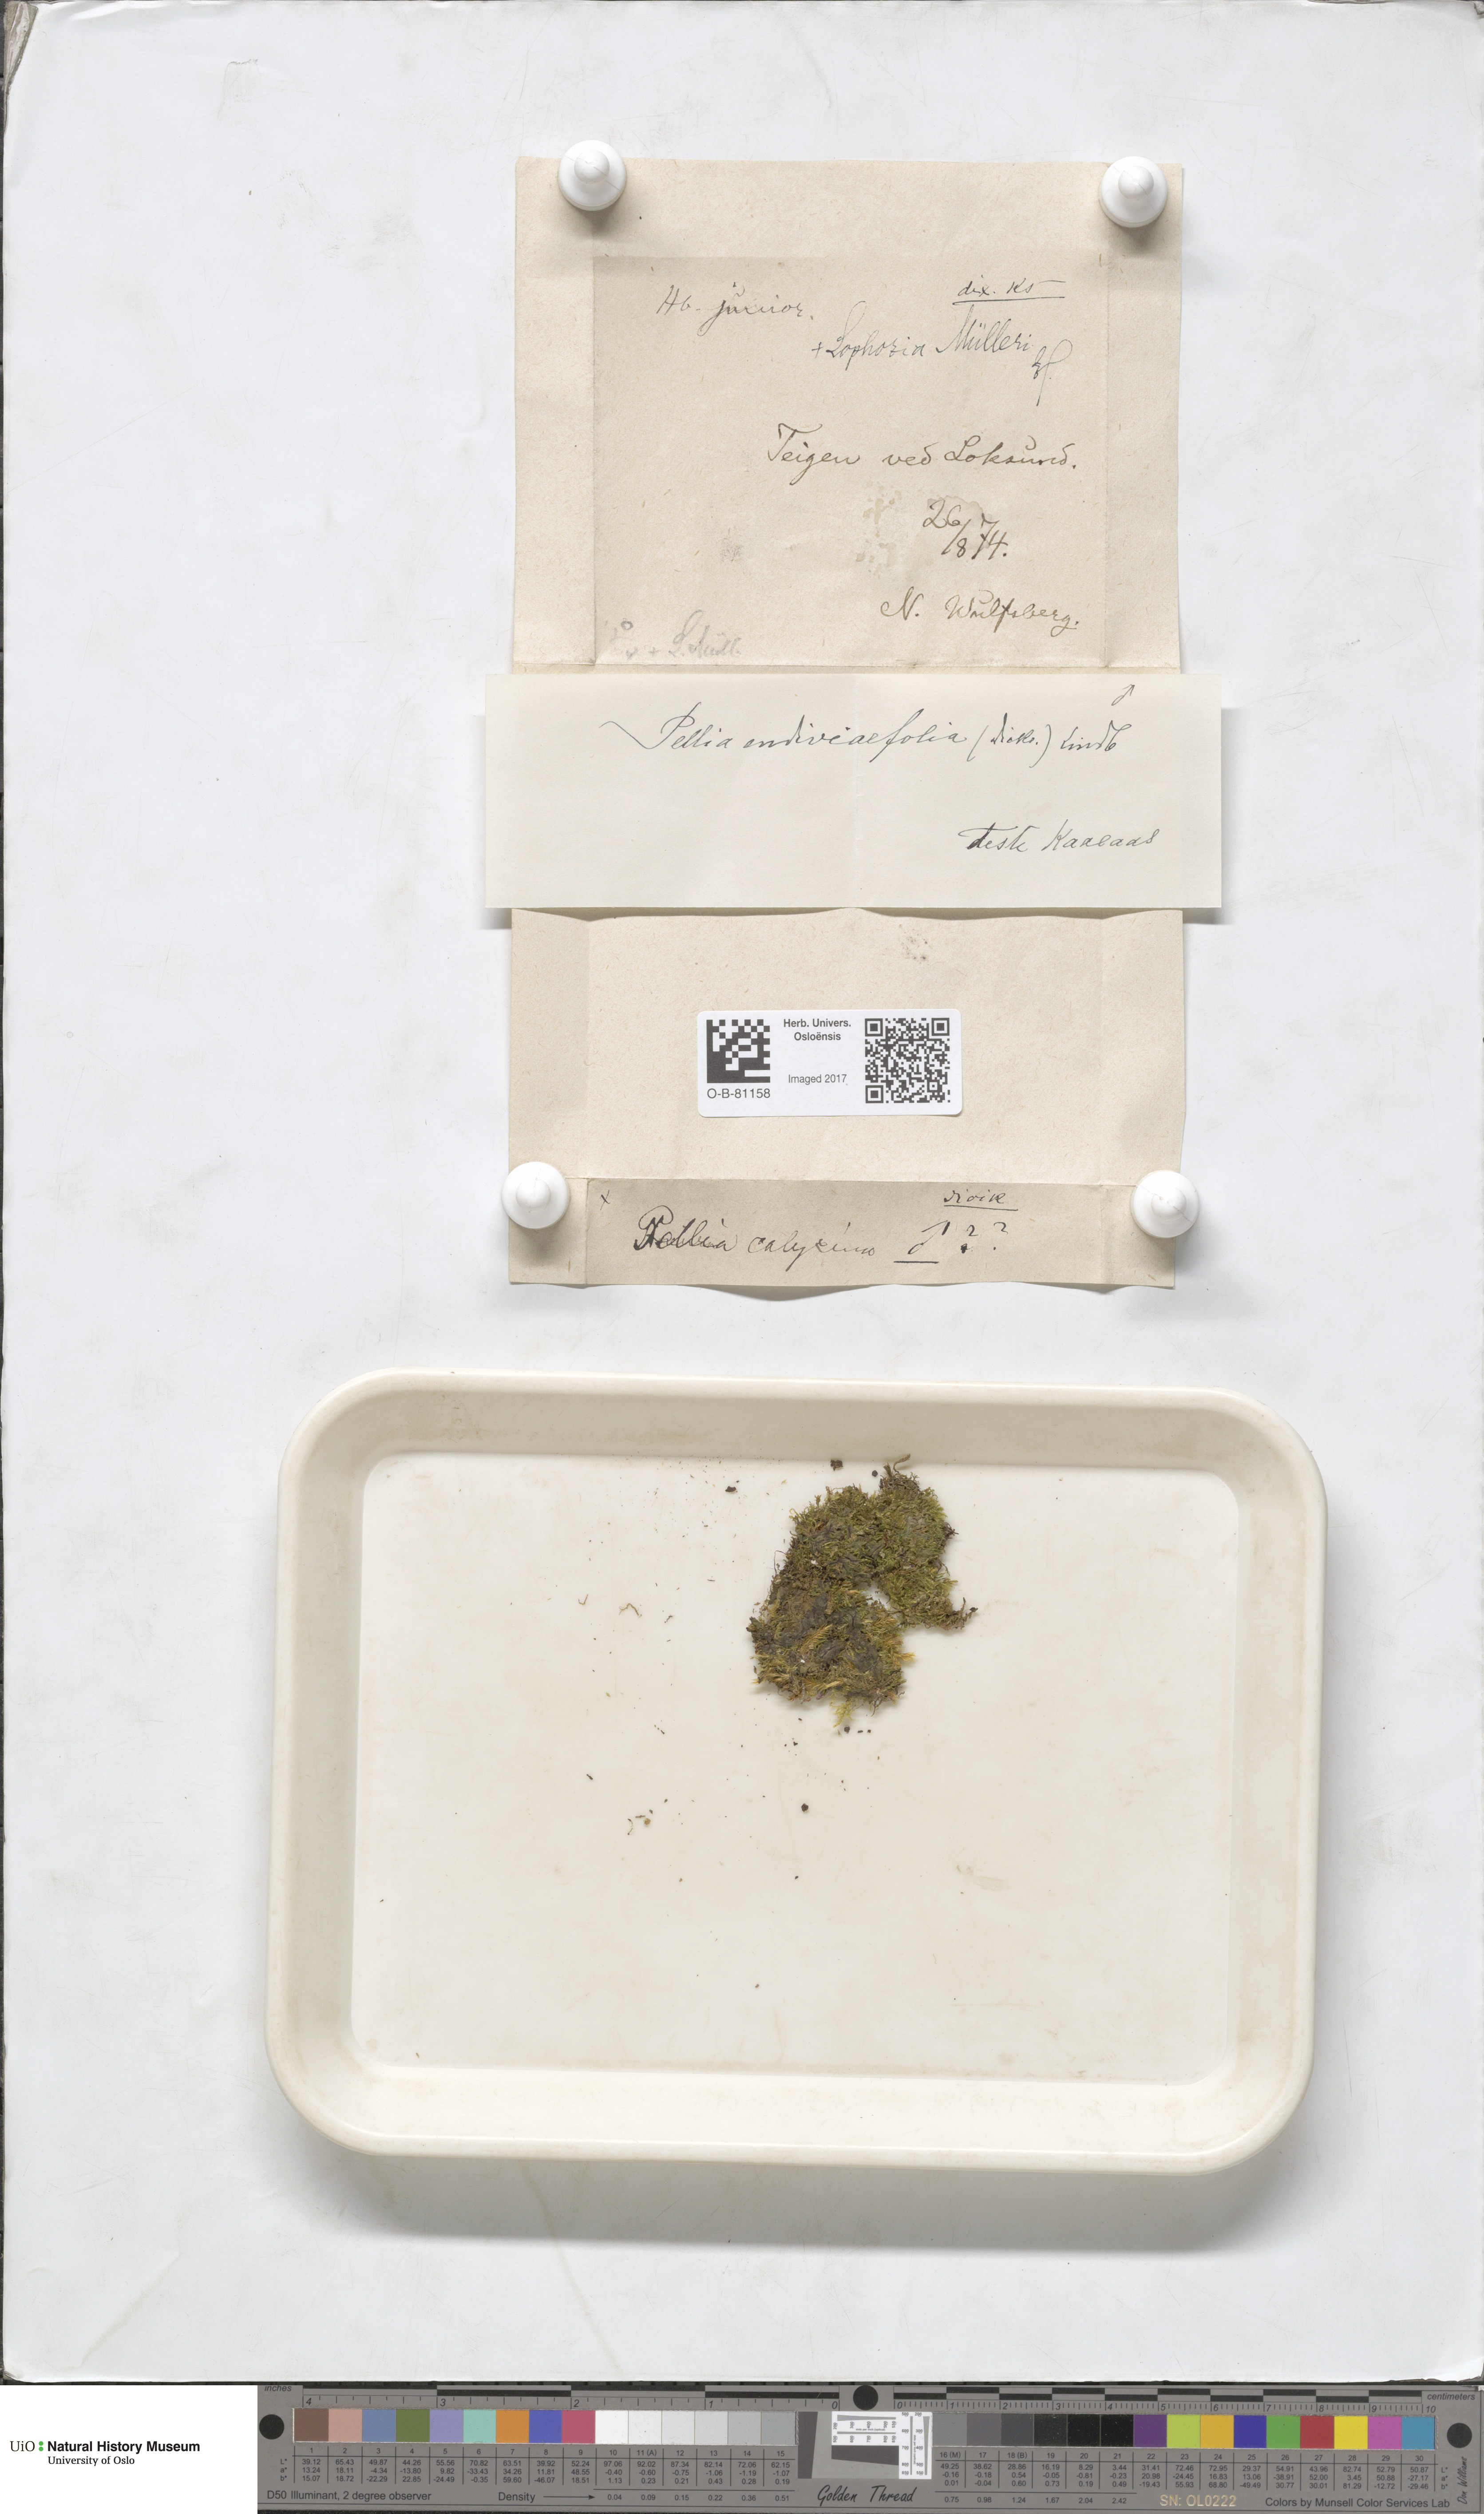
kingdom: Plantae
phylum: Marchantiophyta
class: Jungermanniopsida
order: Pelliales
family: Pelliaceae
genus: Apopellia
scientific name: Apopellia endiviifolia
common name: Endive pellia
